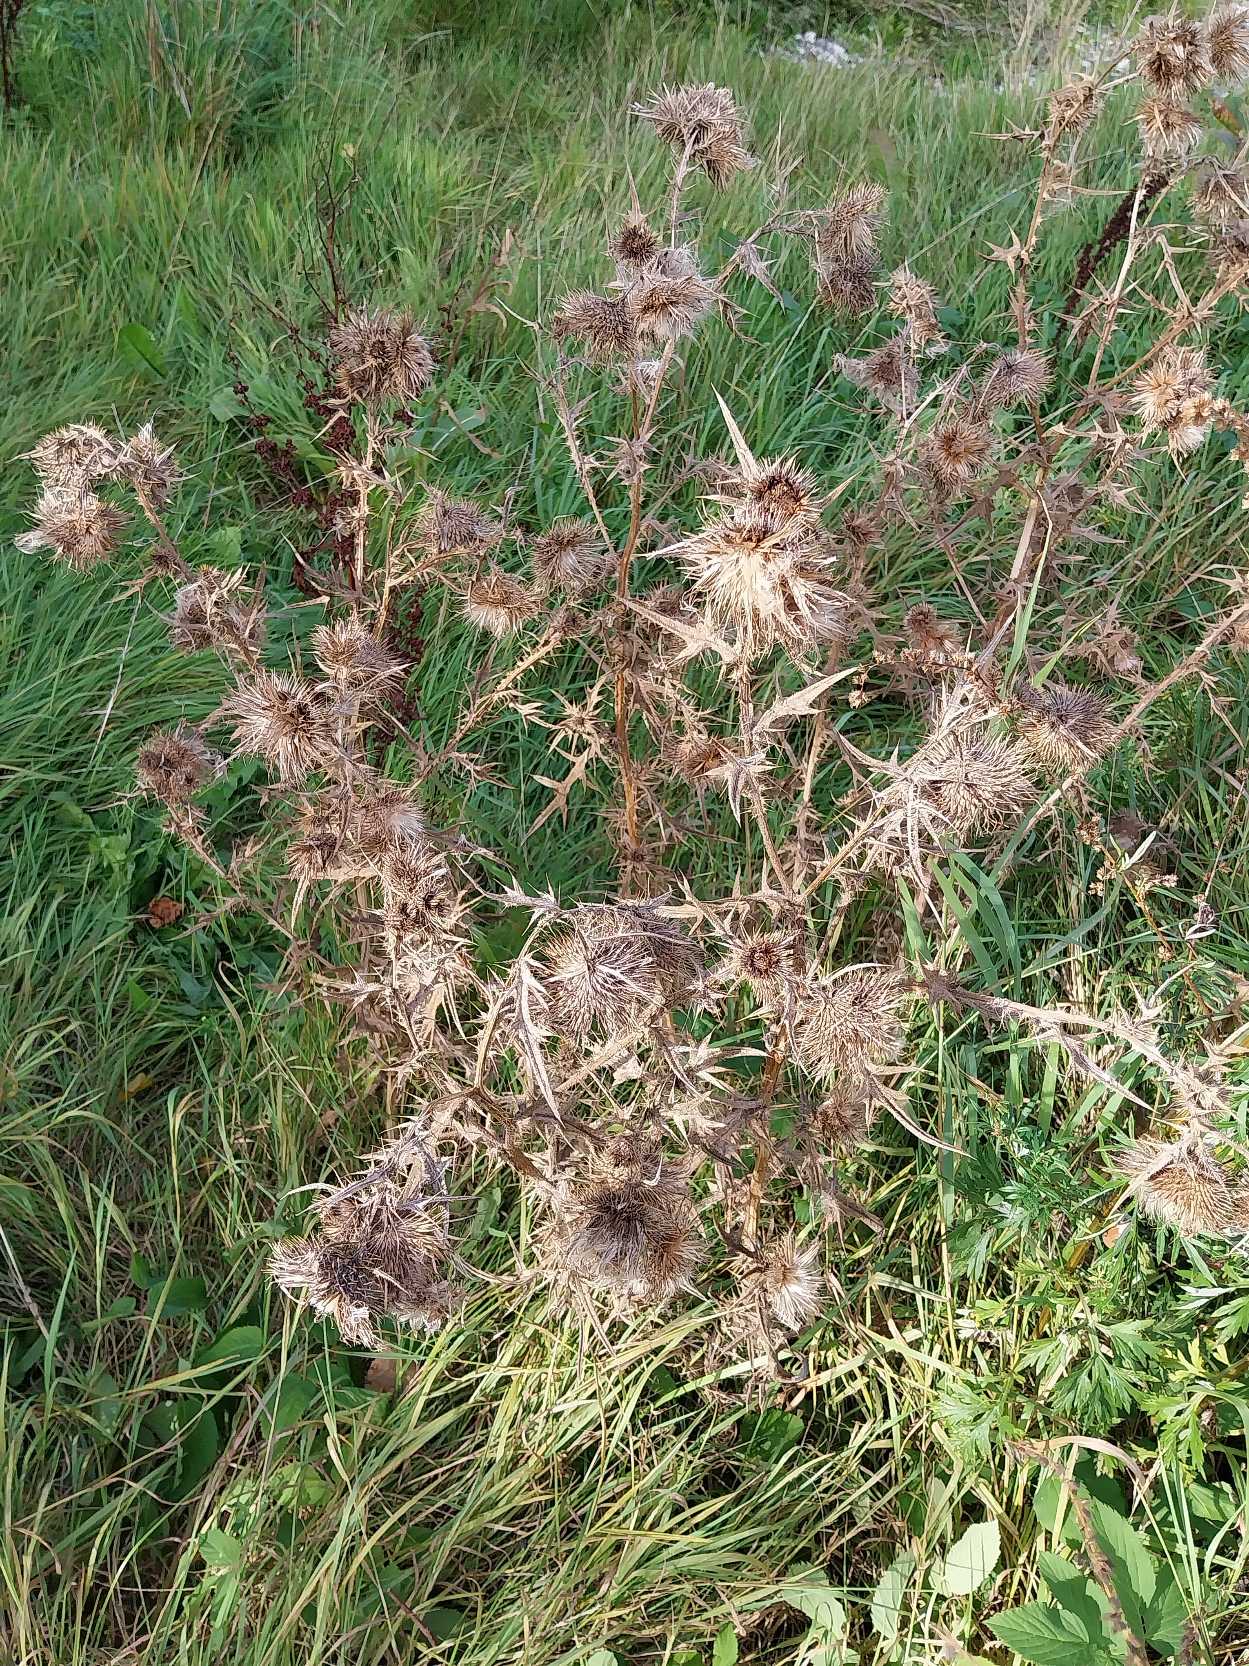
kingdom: Plantae
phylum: Tracheophyta
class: Magnoliopsida
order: Asterales
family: Asteraceae
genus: Cirsium
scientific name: Cirsium vulgare
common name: Horse-tidsel
